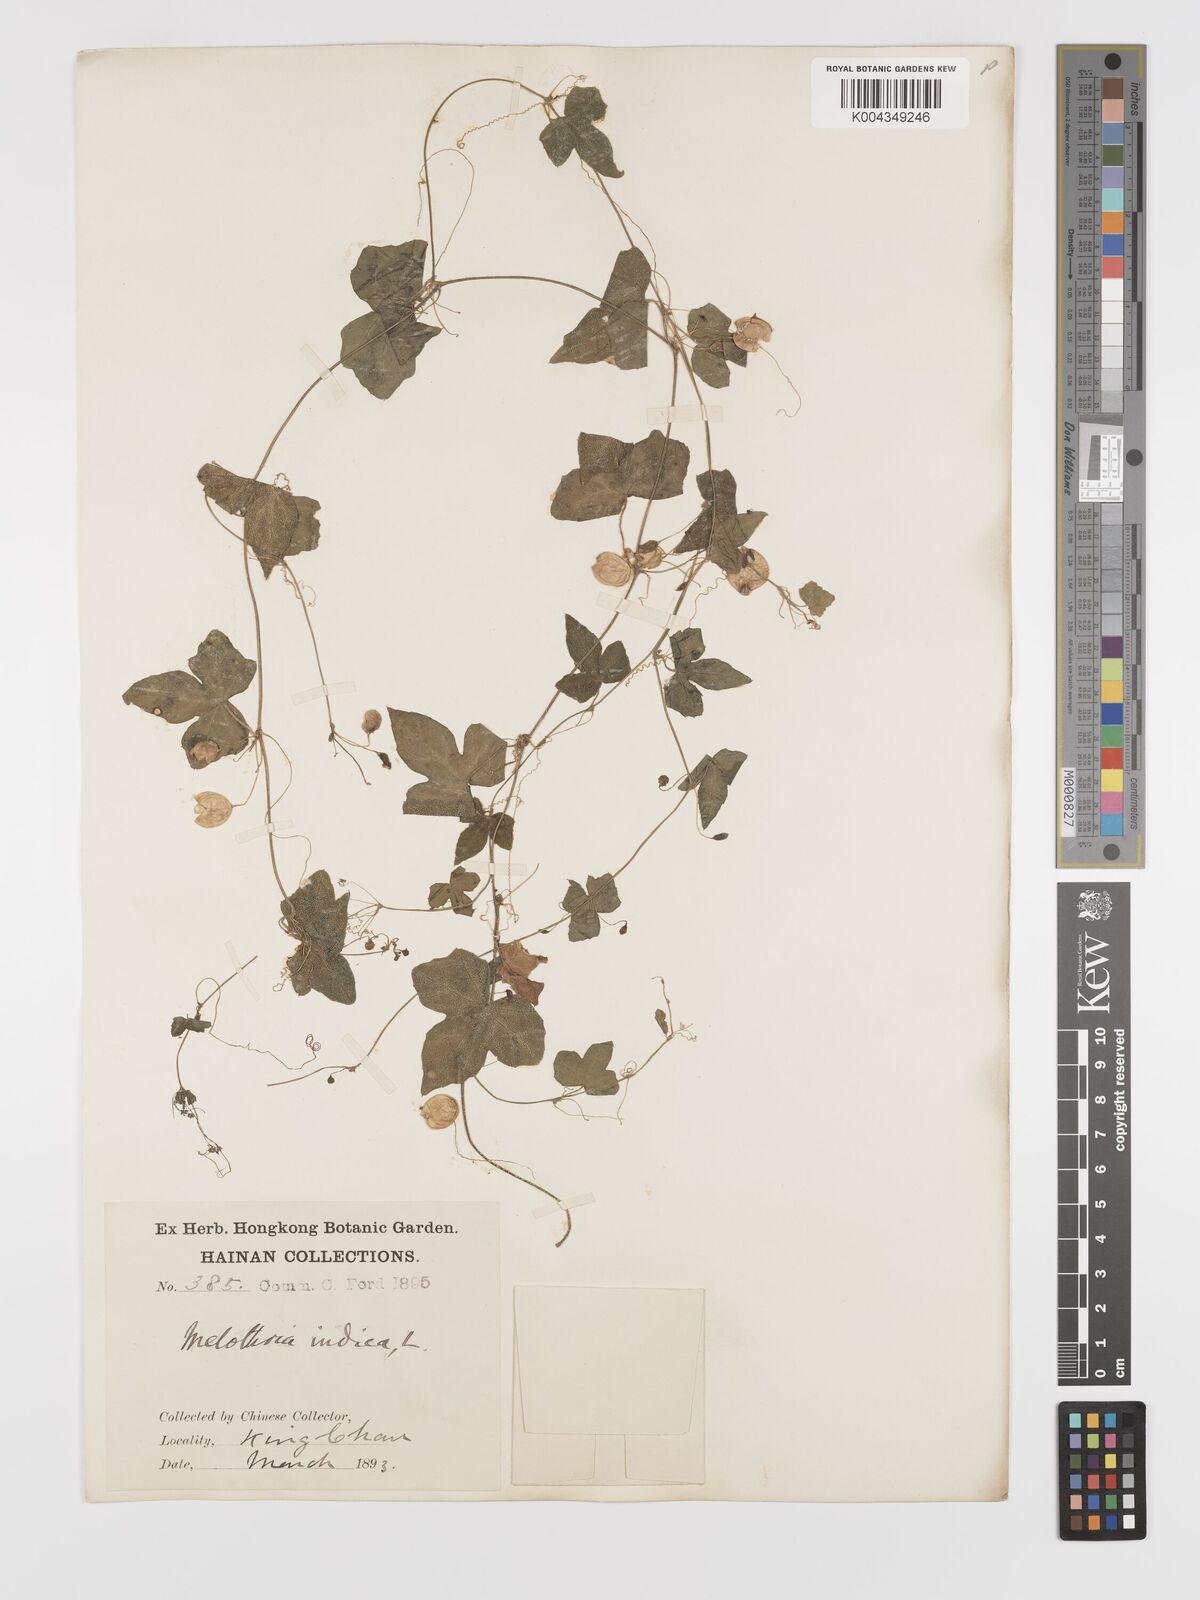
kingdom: Plantae
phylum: Tracheophyta
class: Magnoliopsida
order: Cucurbitales
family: Cucurbitaceae
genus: Zehneria
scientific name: Zehneria japonica
